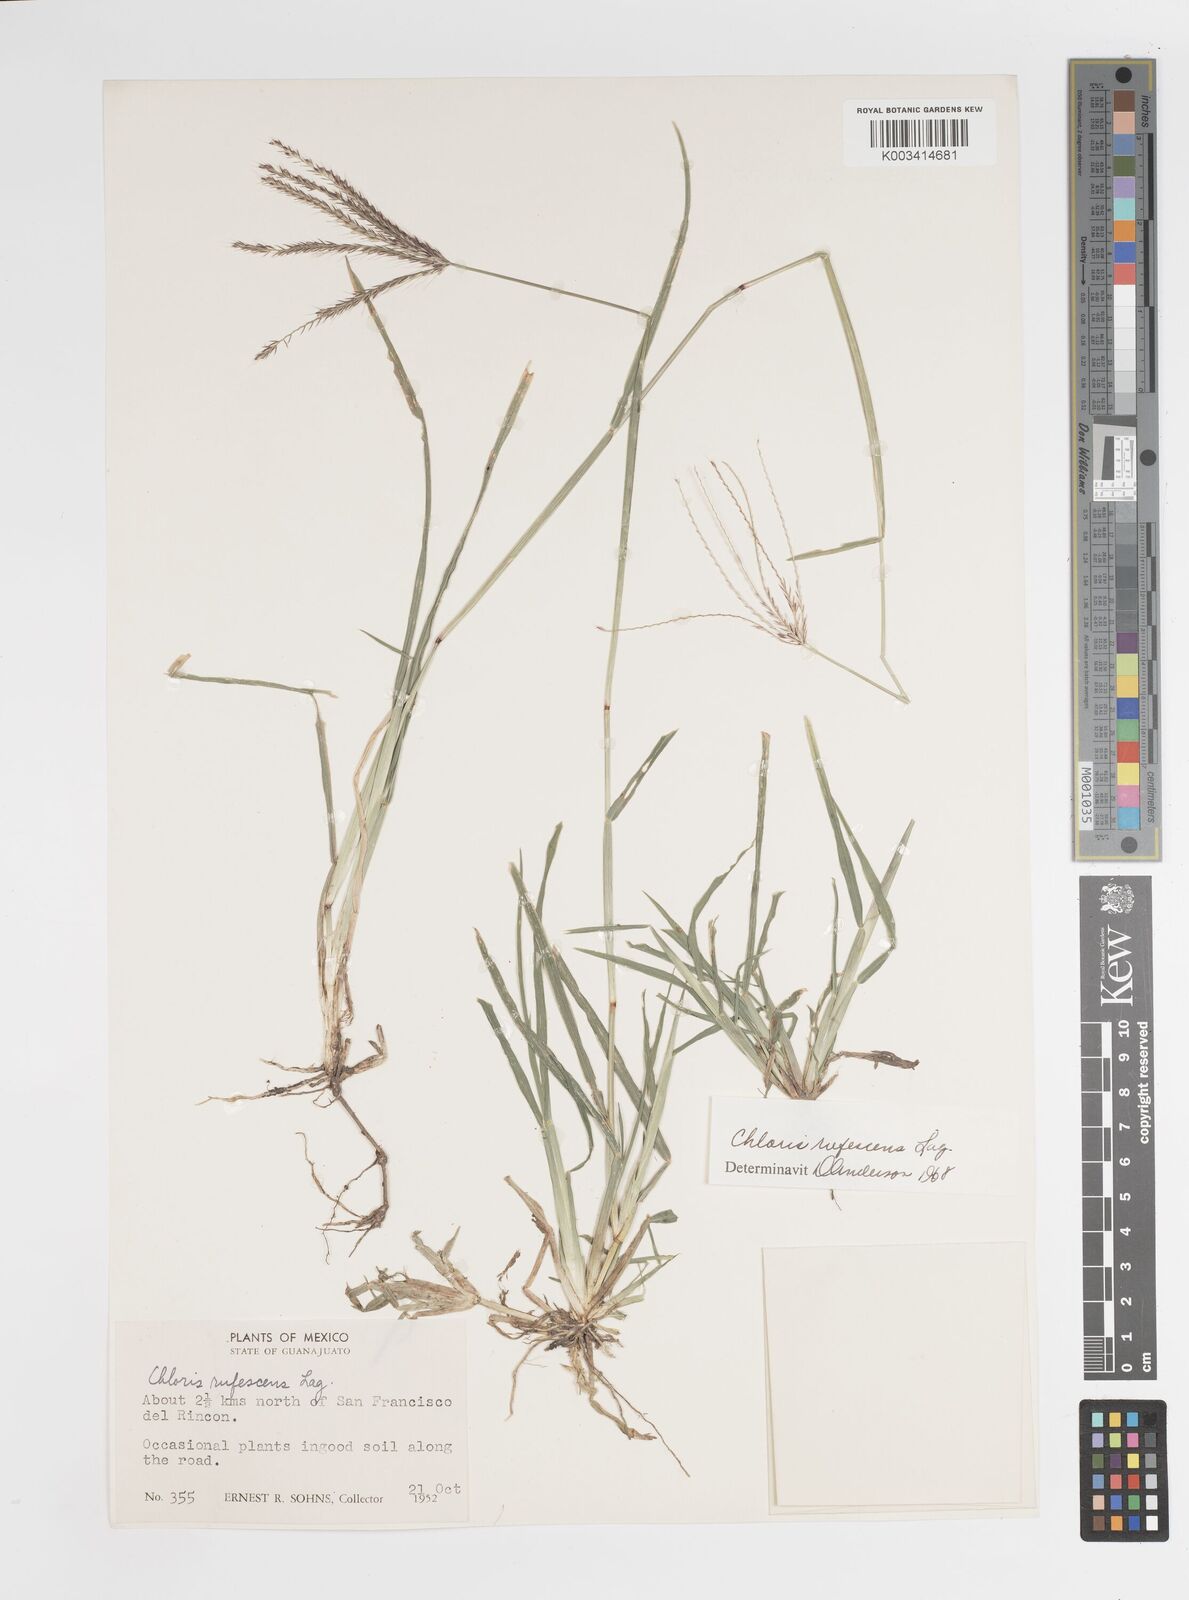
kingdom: Plantae
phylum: Tracheophyta
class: Liliopsida
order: Poales
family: Poaceae
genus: Chloris
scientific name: Chloris rufescens
